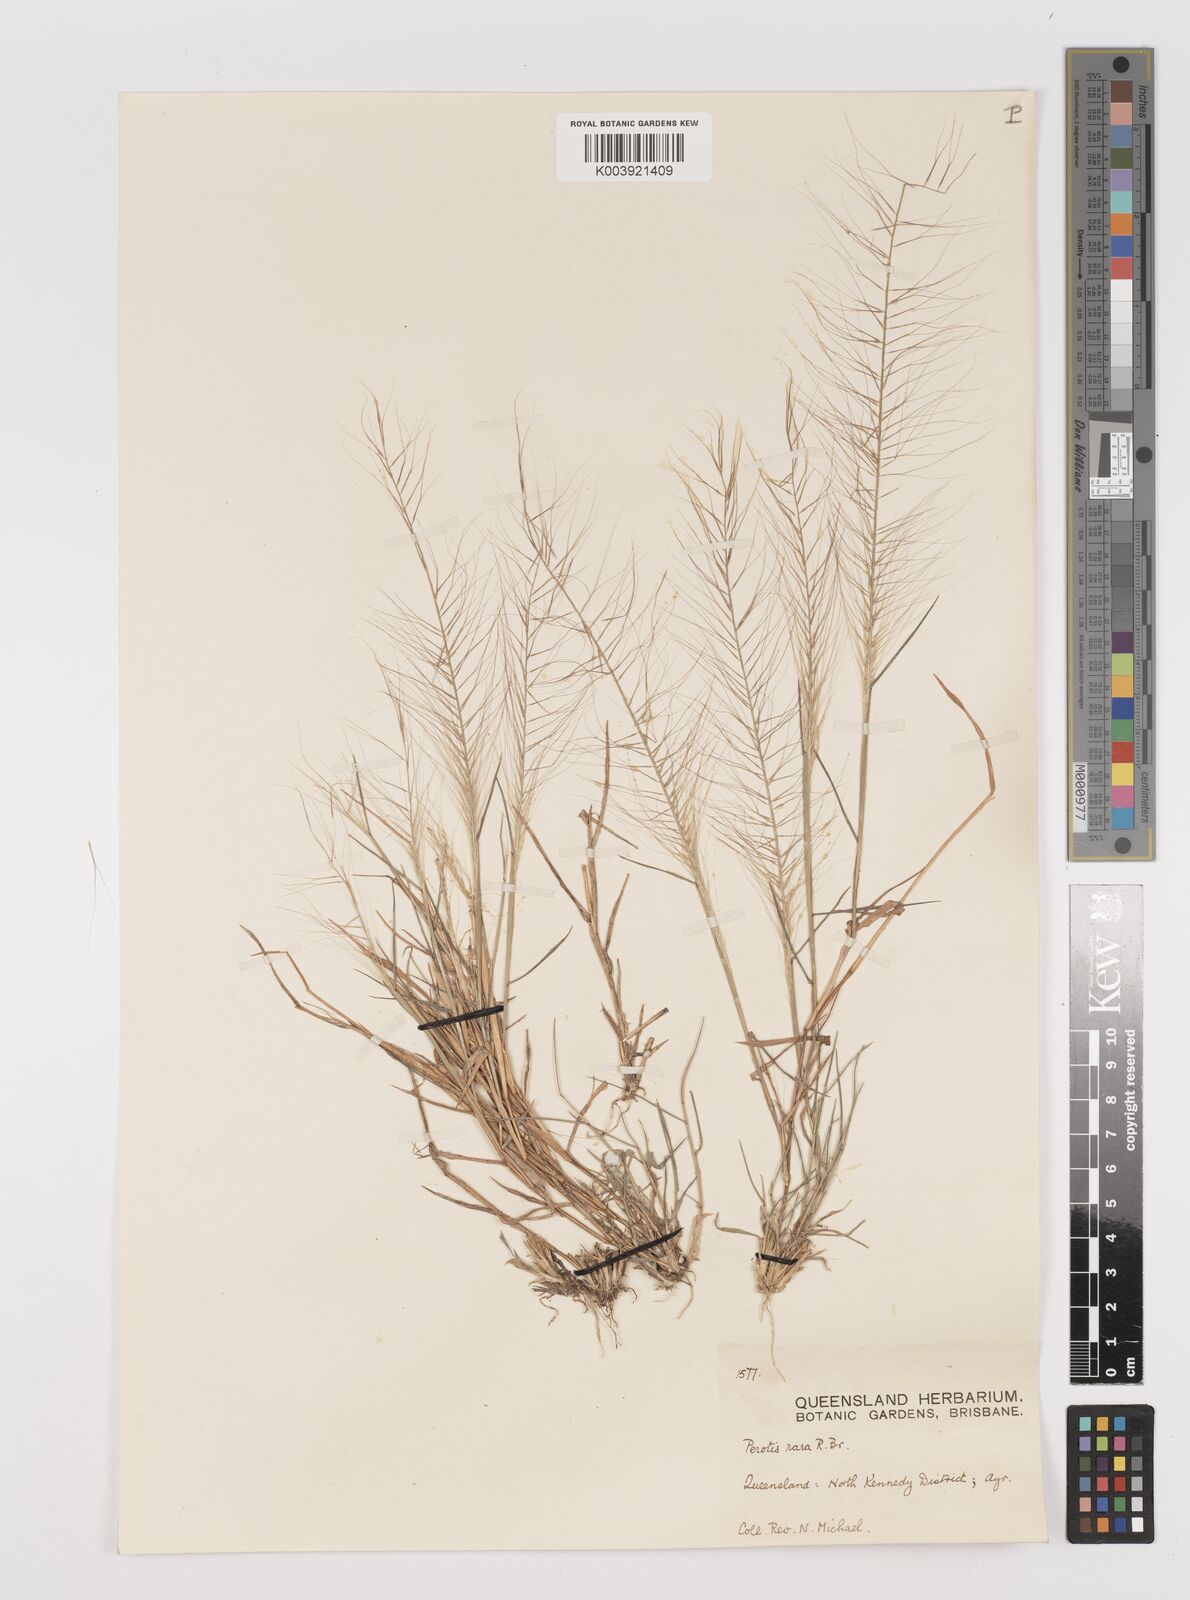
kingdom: Plantae
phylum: Tracheophyta
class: Liliopsida
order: Poales
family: Poaceae
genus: Perotis
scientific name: Perotis rara
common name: Comet grass
